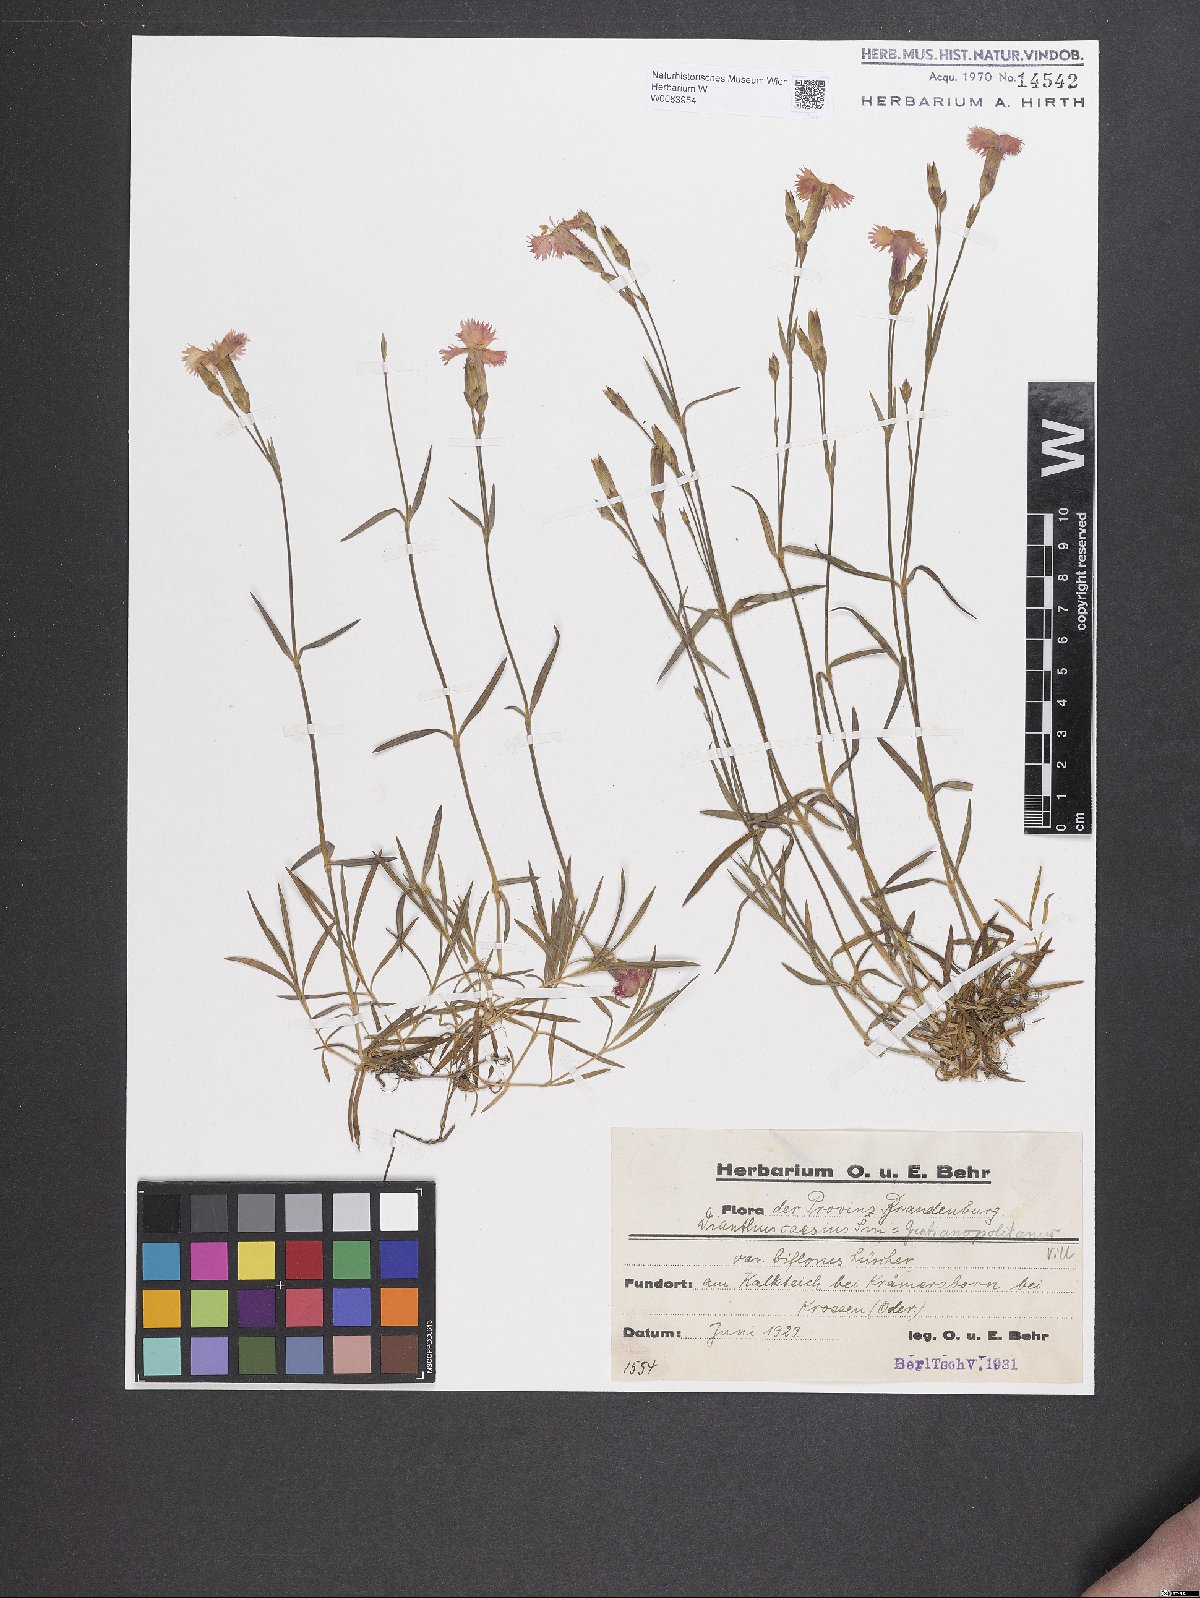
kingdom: Plantae
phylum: Tracheophyta
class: Magnoliopsida
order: Caryophyllales
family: Caryophyllaceae
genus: Dianthus
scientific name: Dianthus gratianopolitanus
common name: Cheddar pink
